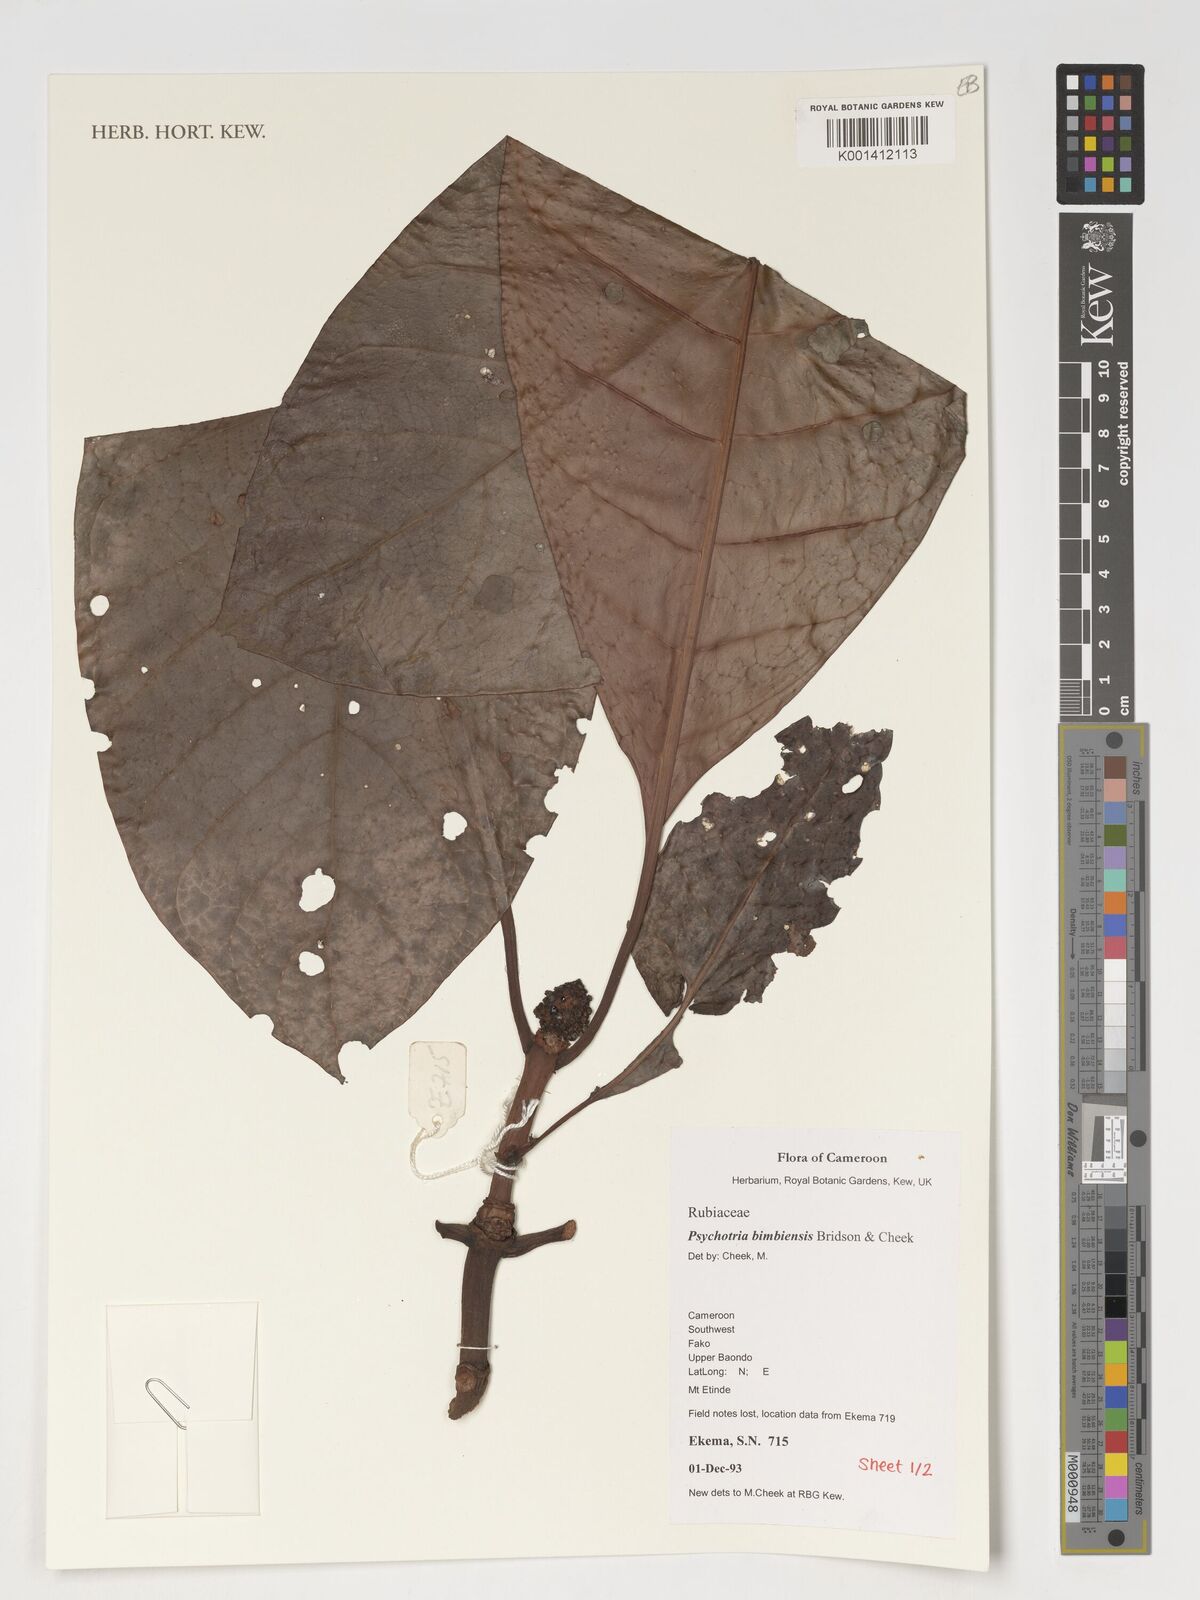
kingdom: Plantae
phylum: Tracheophyta
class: Magnoliopsida
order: Gentianales
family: Rubiaceae
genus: Psychotria
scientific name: Psychotria bimbiensis
